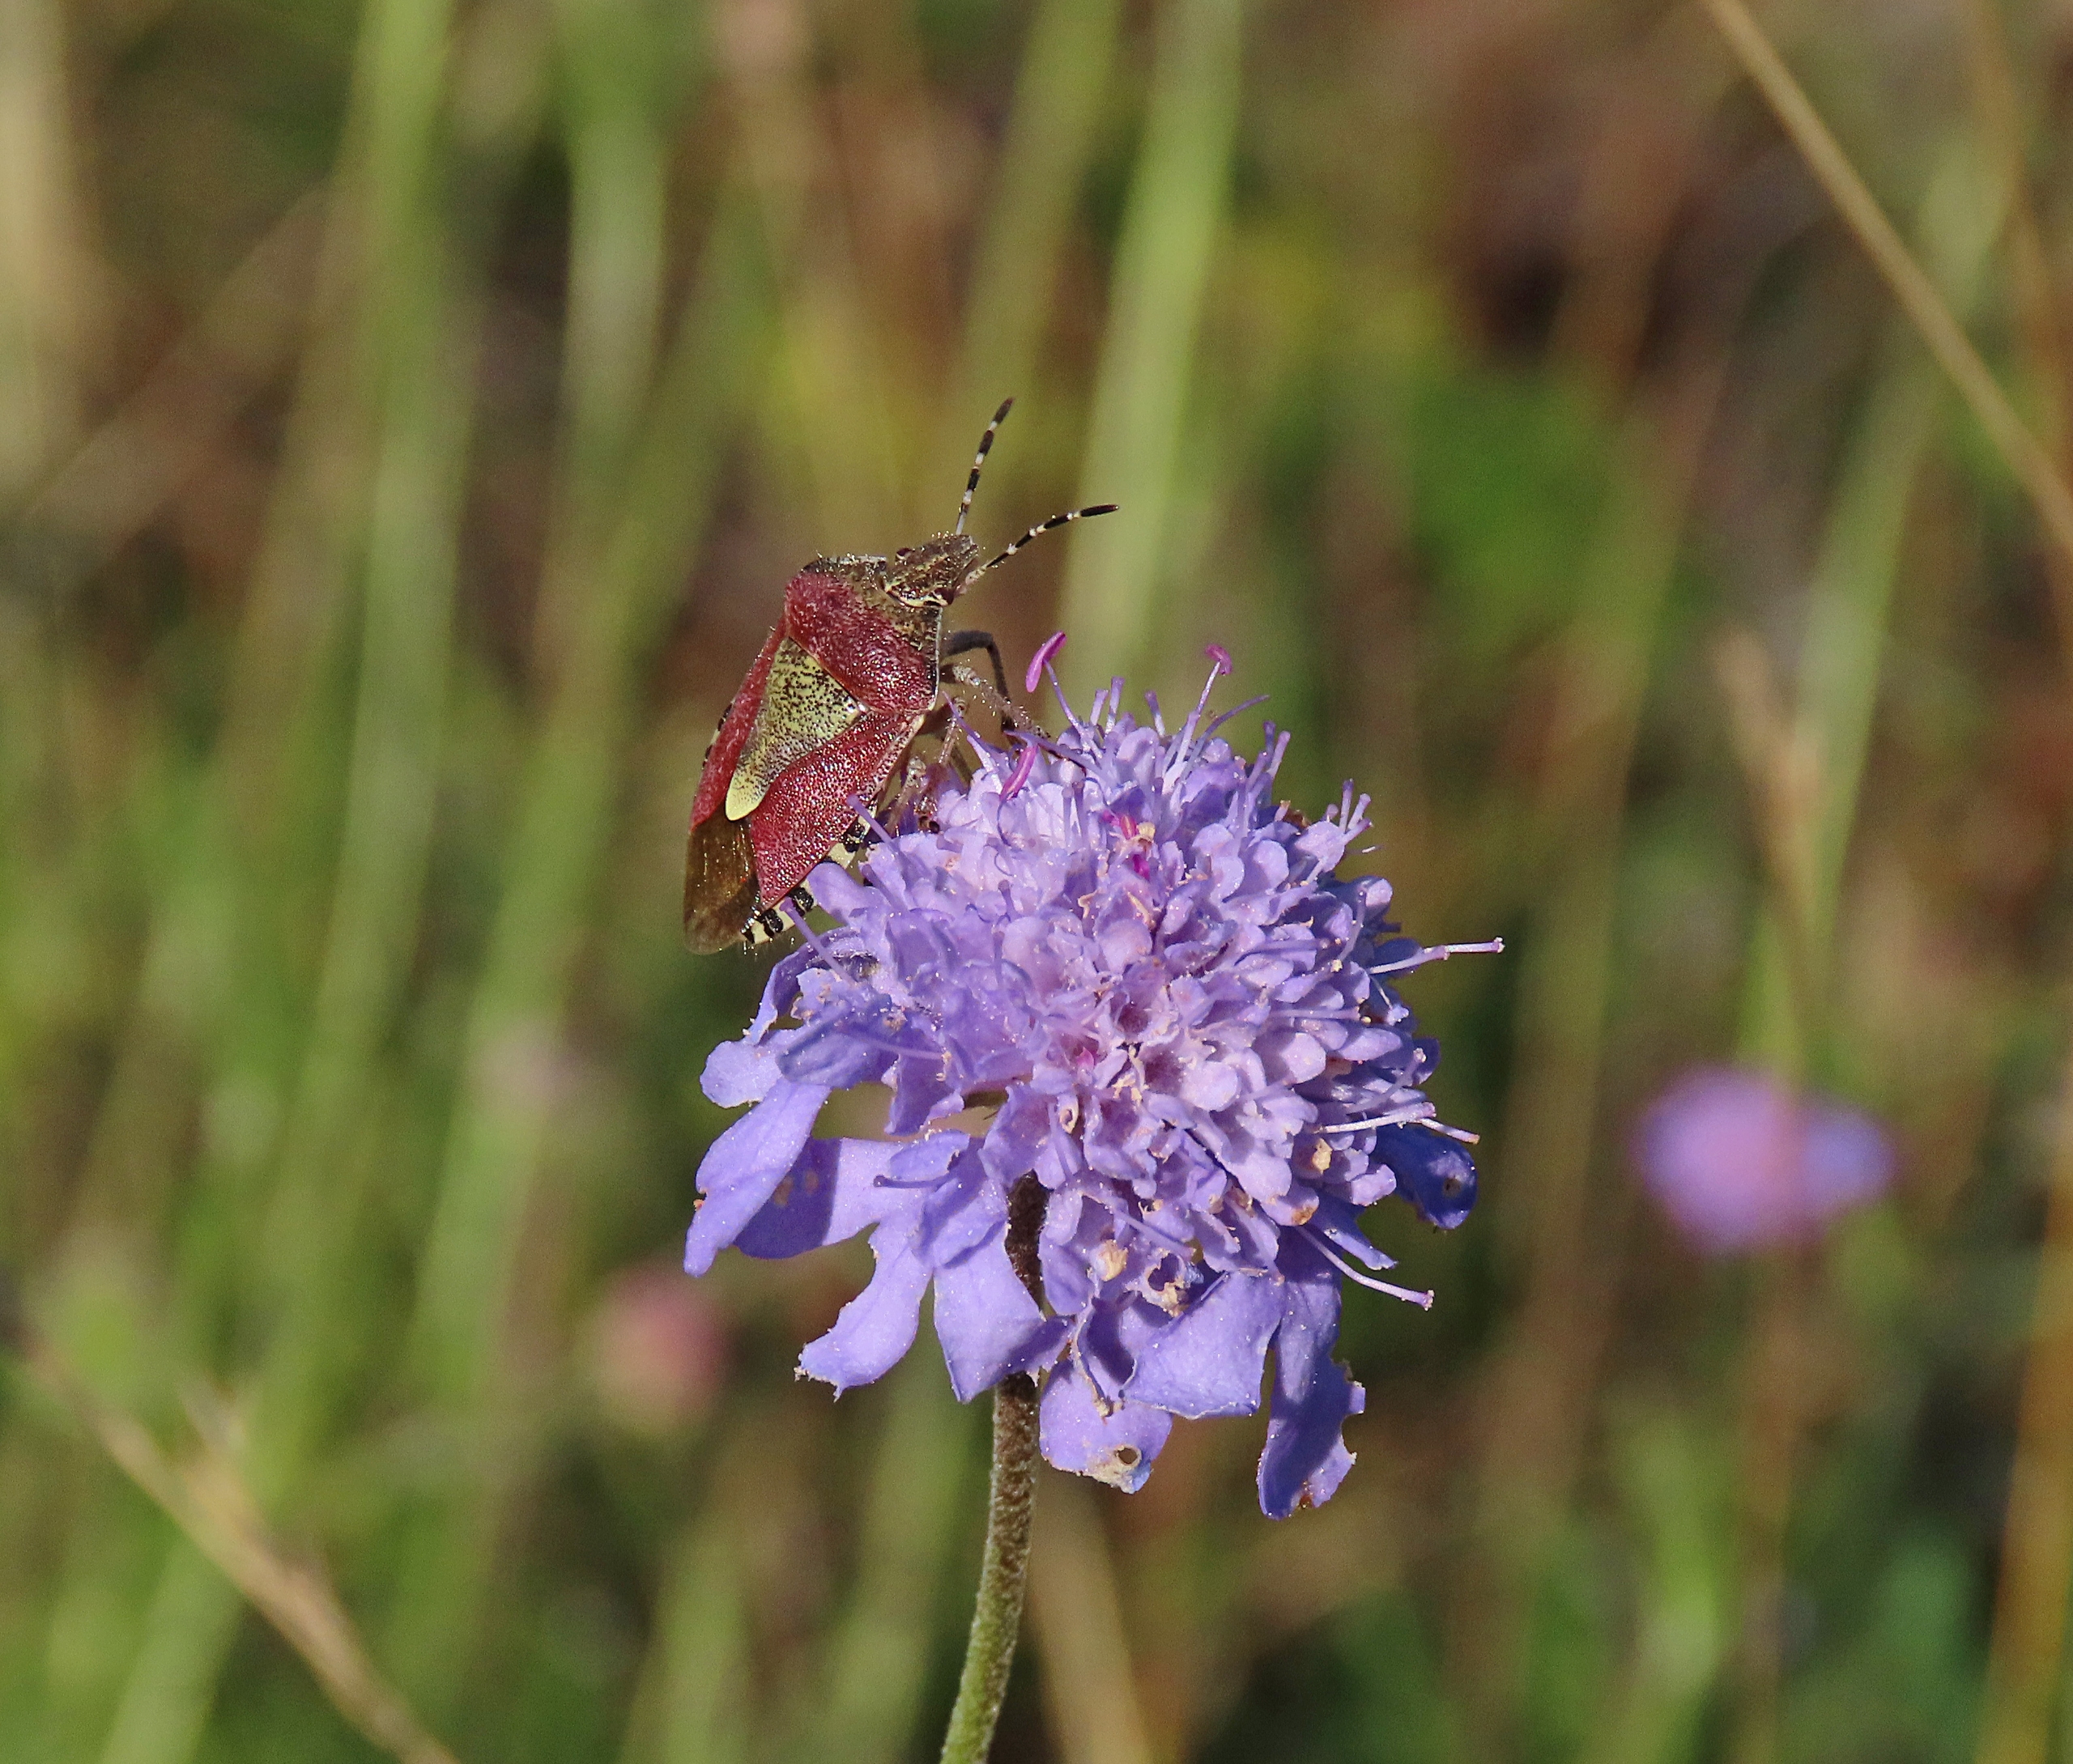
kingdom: Animalia
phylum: Arthropoda
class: Insecta
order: Hemiptera
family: Pentatomidae
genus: Dolycoris
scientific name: Dolycoris baccarum
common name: Almindelig bærtæge
